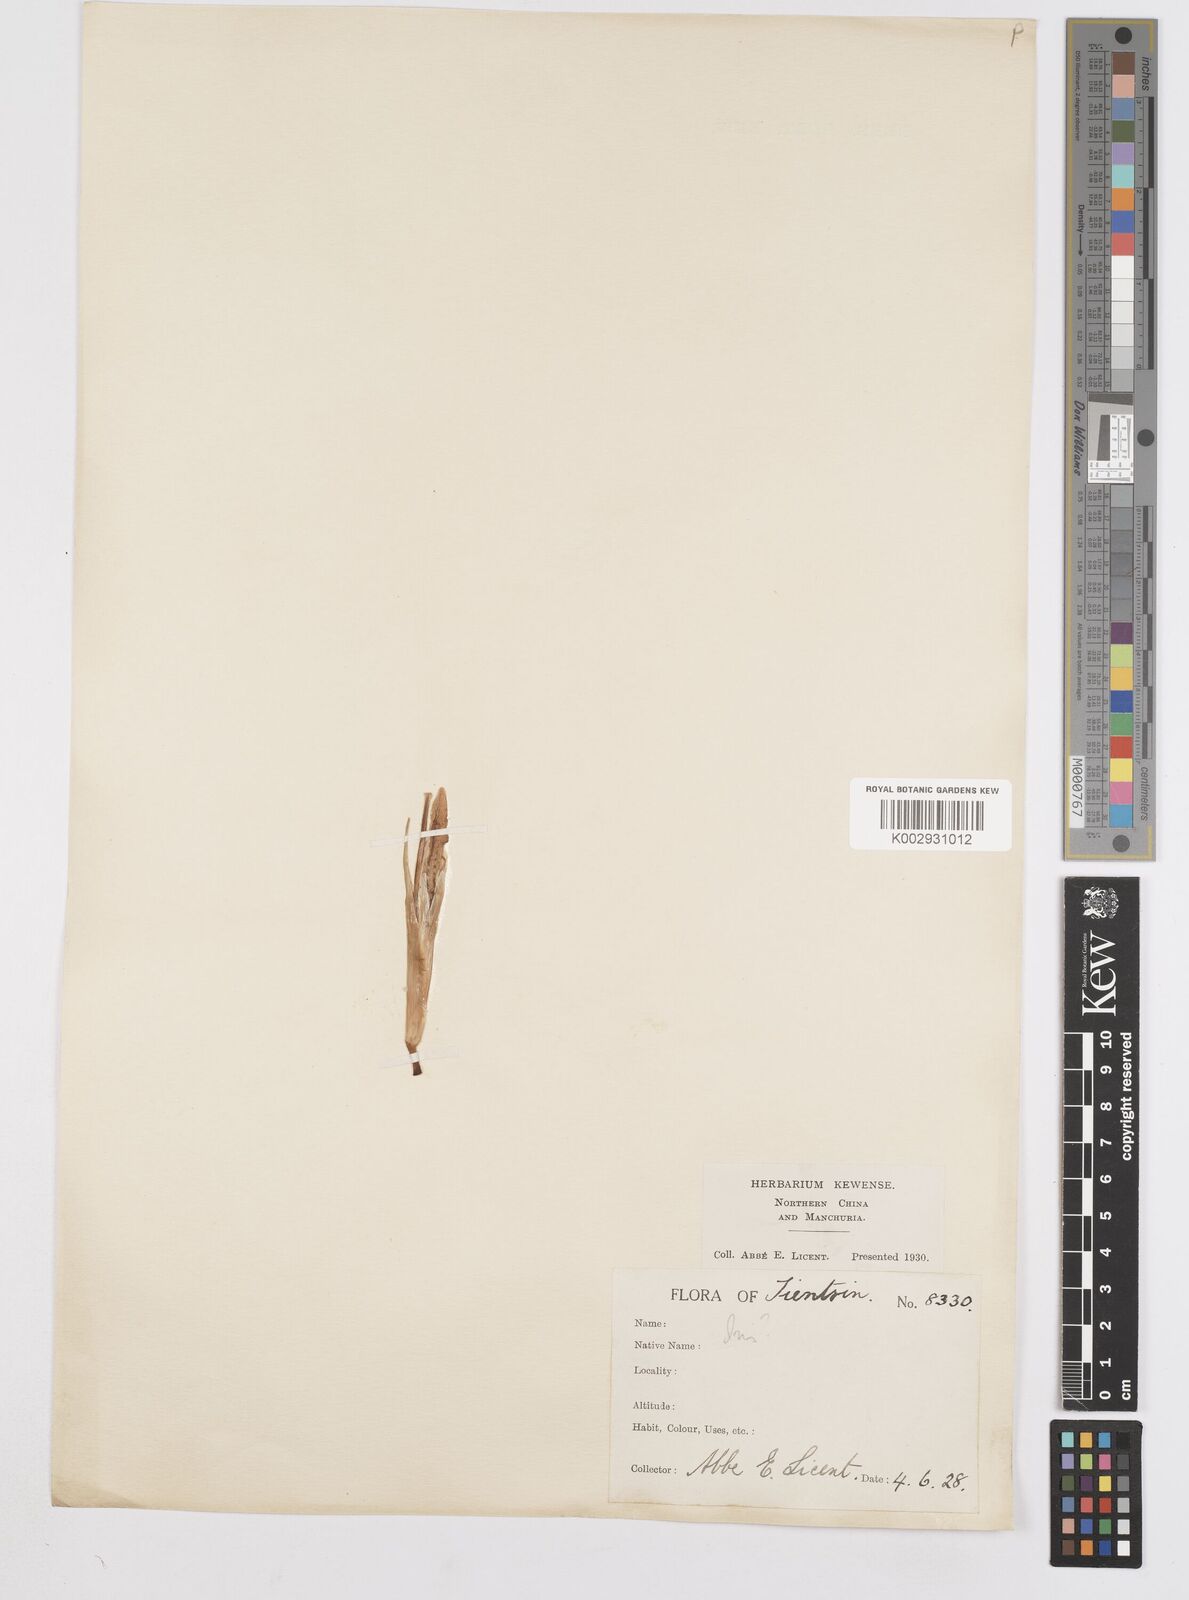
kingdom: Plantae
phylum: Tracheophyta
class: Liliopsida
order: Asparagales
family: Iridaceae
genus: Iris
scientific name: Iris
